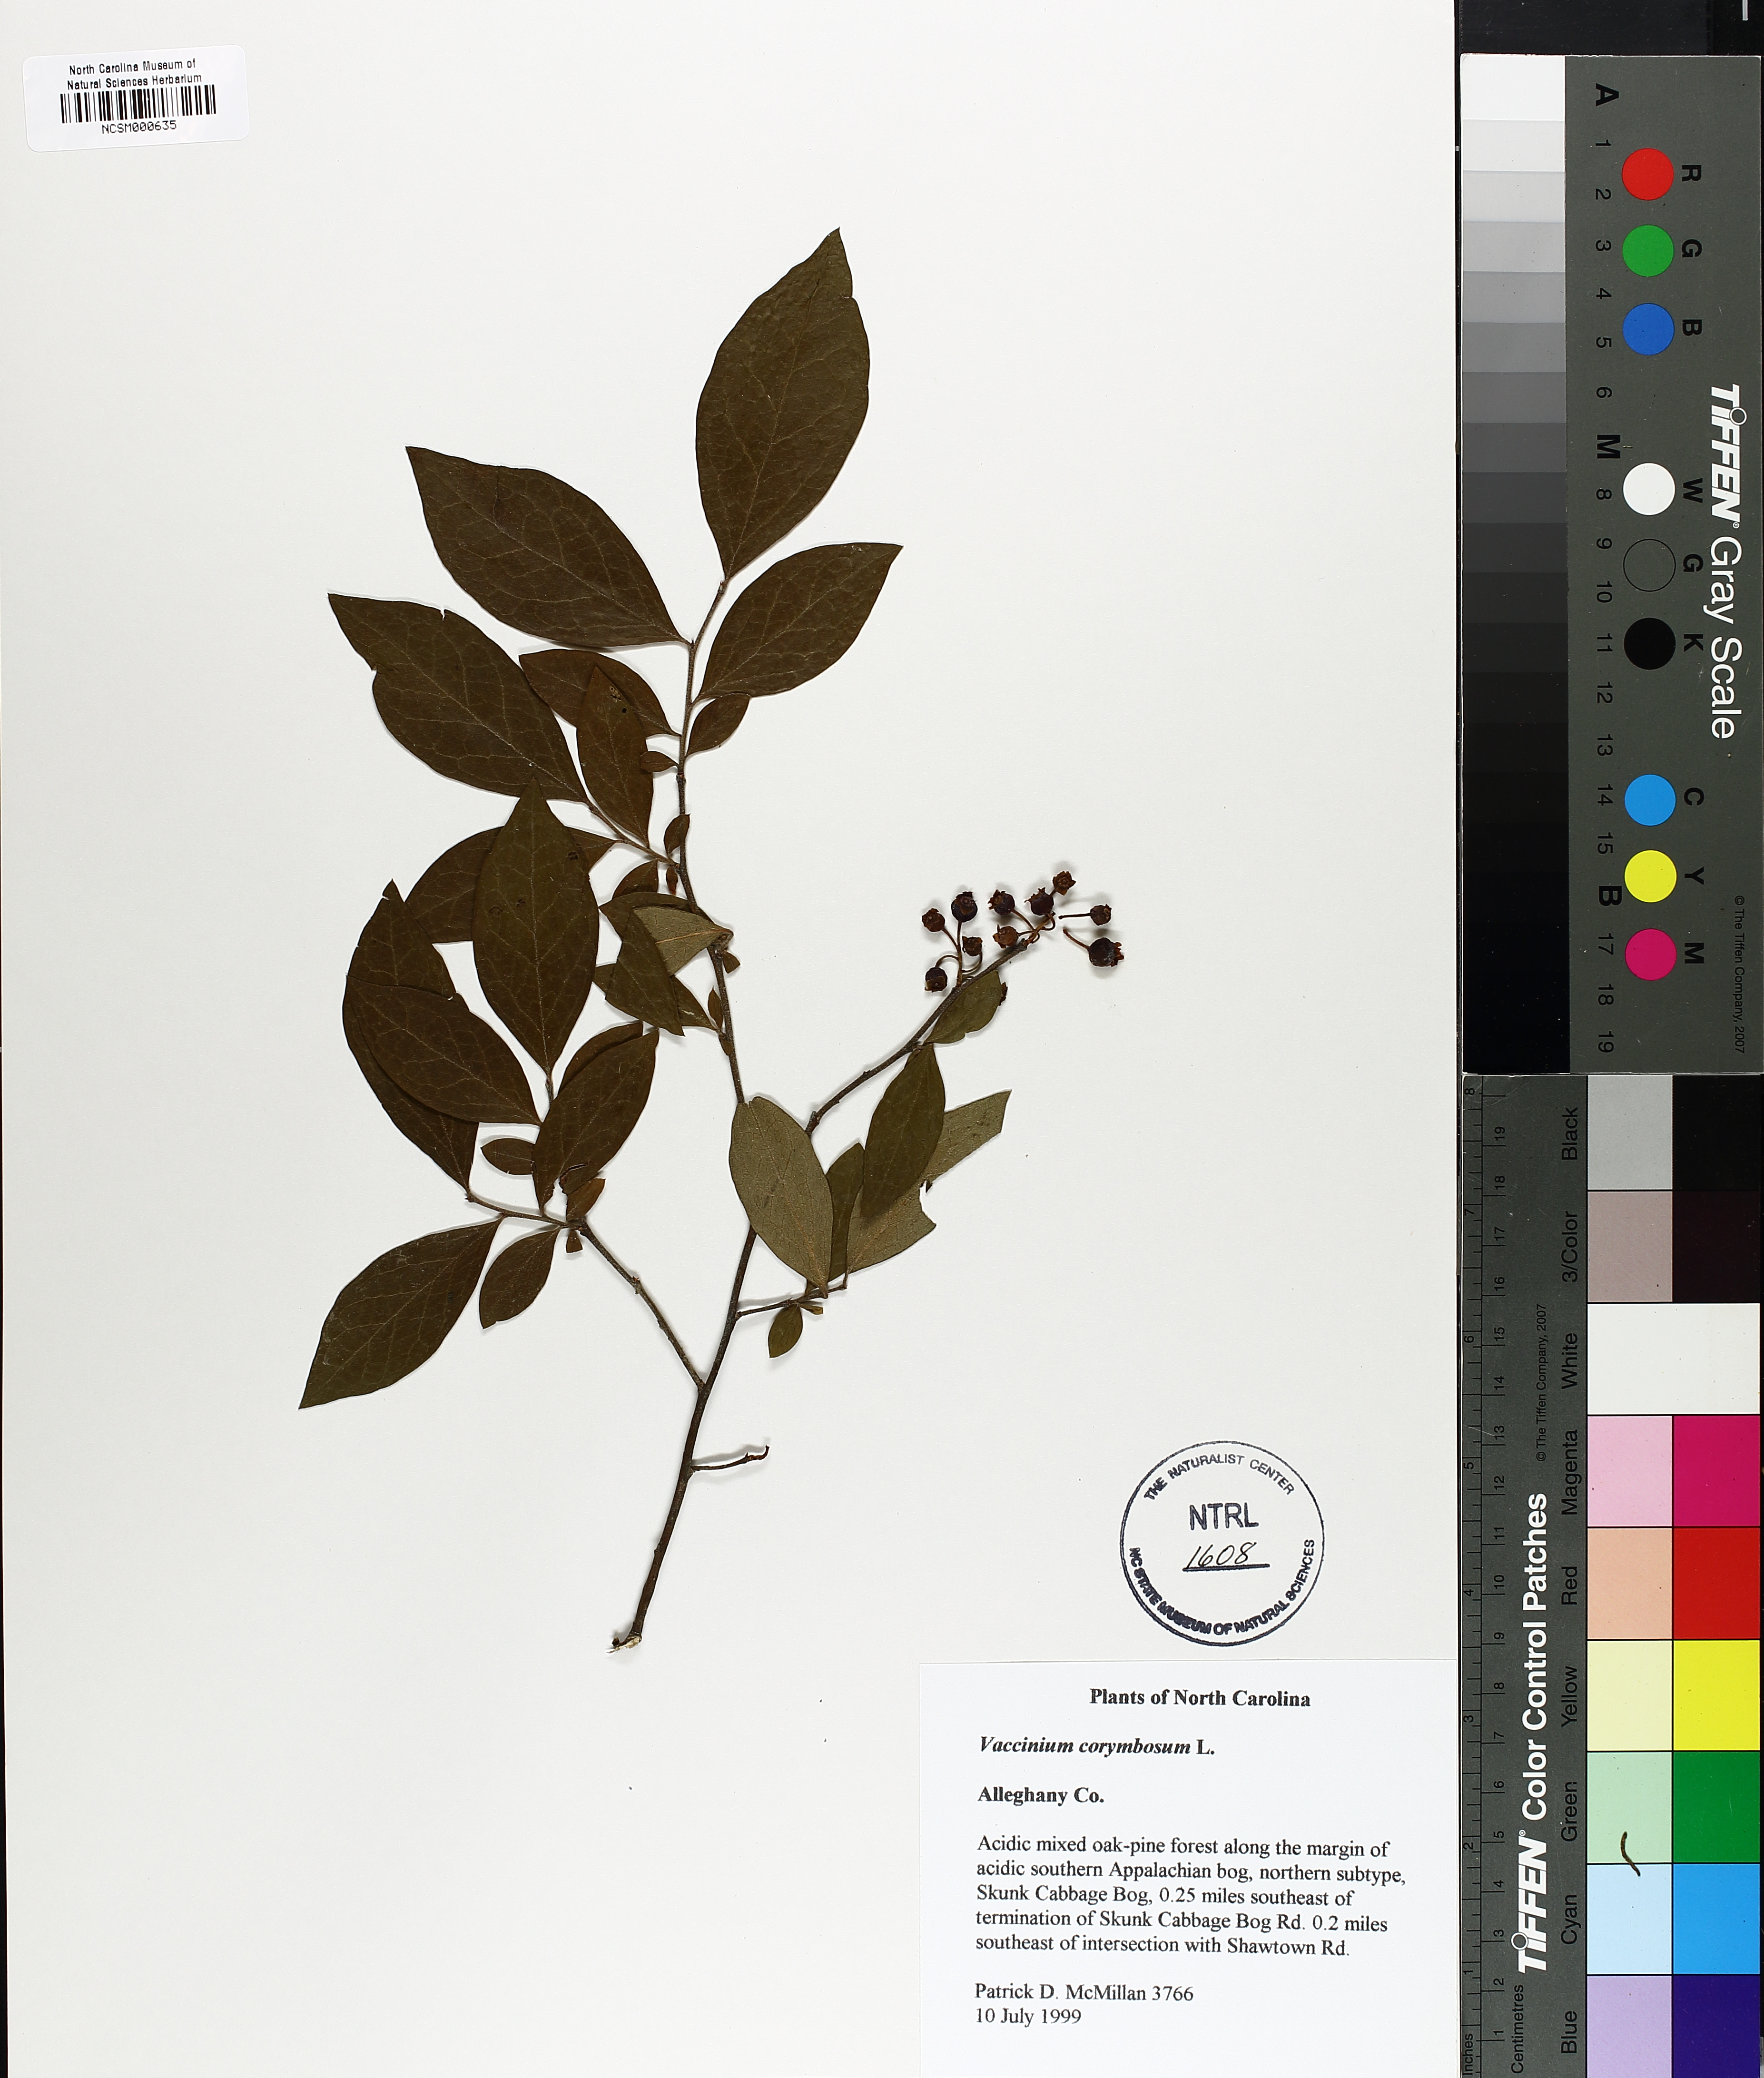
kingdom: Plantae
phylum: Tracheophyta
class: Magnoliopsida
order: Ericales
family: Ericaceae
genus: Vaccinium
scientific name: Vaccinium corymbosum
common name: Blueberry
